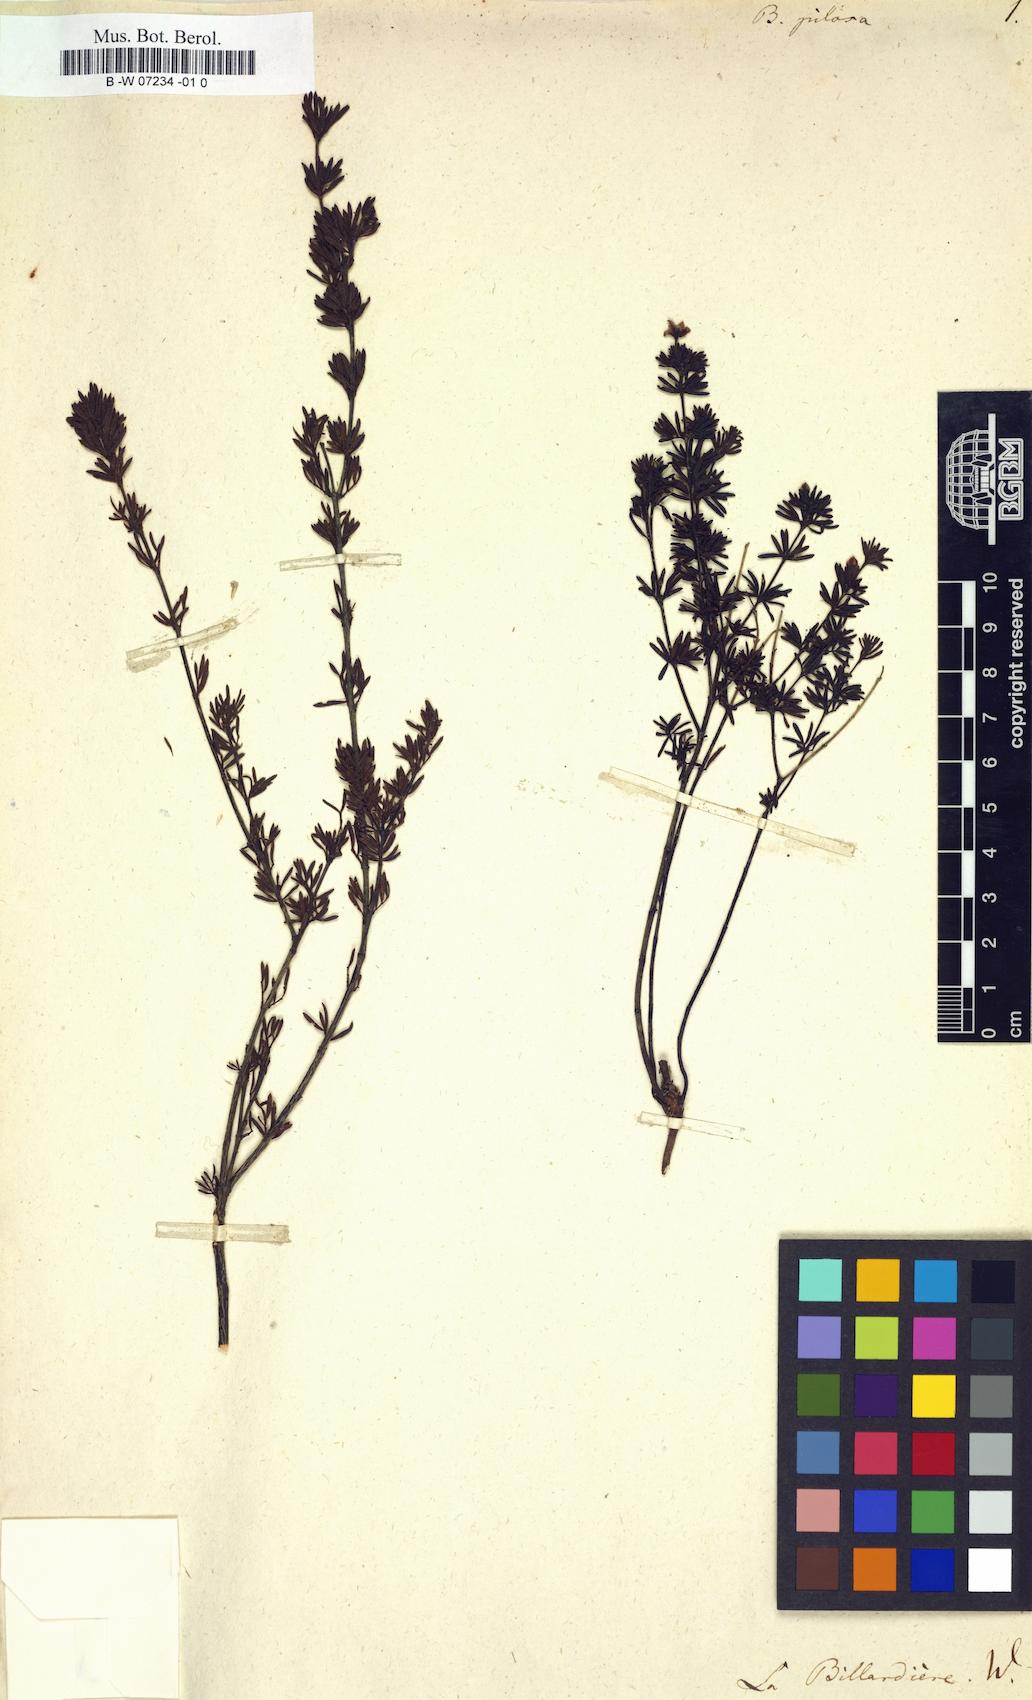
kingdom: Plantae
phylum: Tracheophyta
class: Magnoliopsida
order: Sapindales
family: Rutaceae
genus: Boronia
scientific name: Boronia pilosa
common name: Hairy boronia
